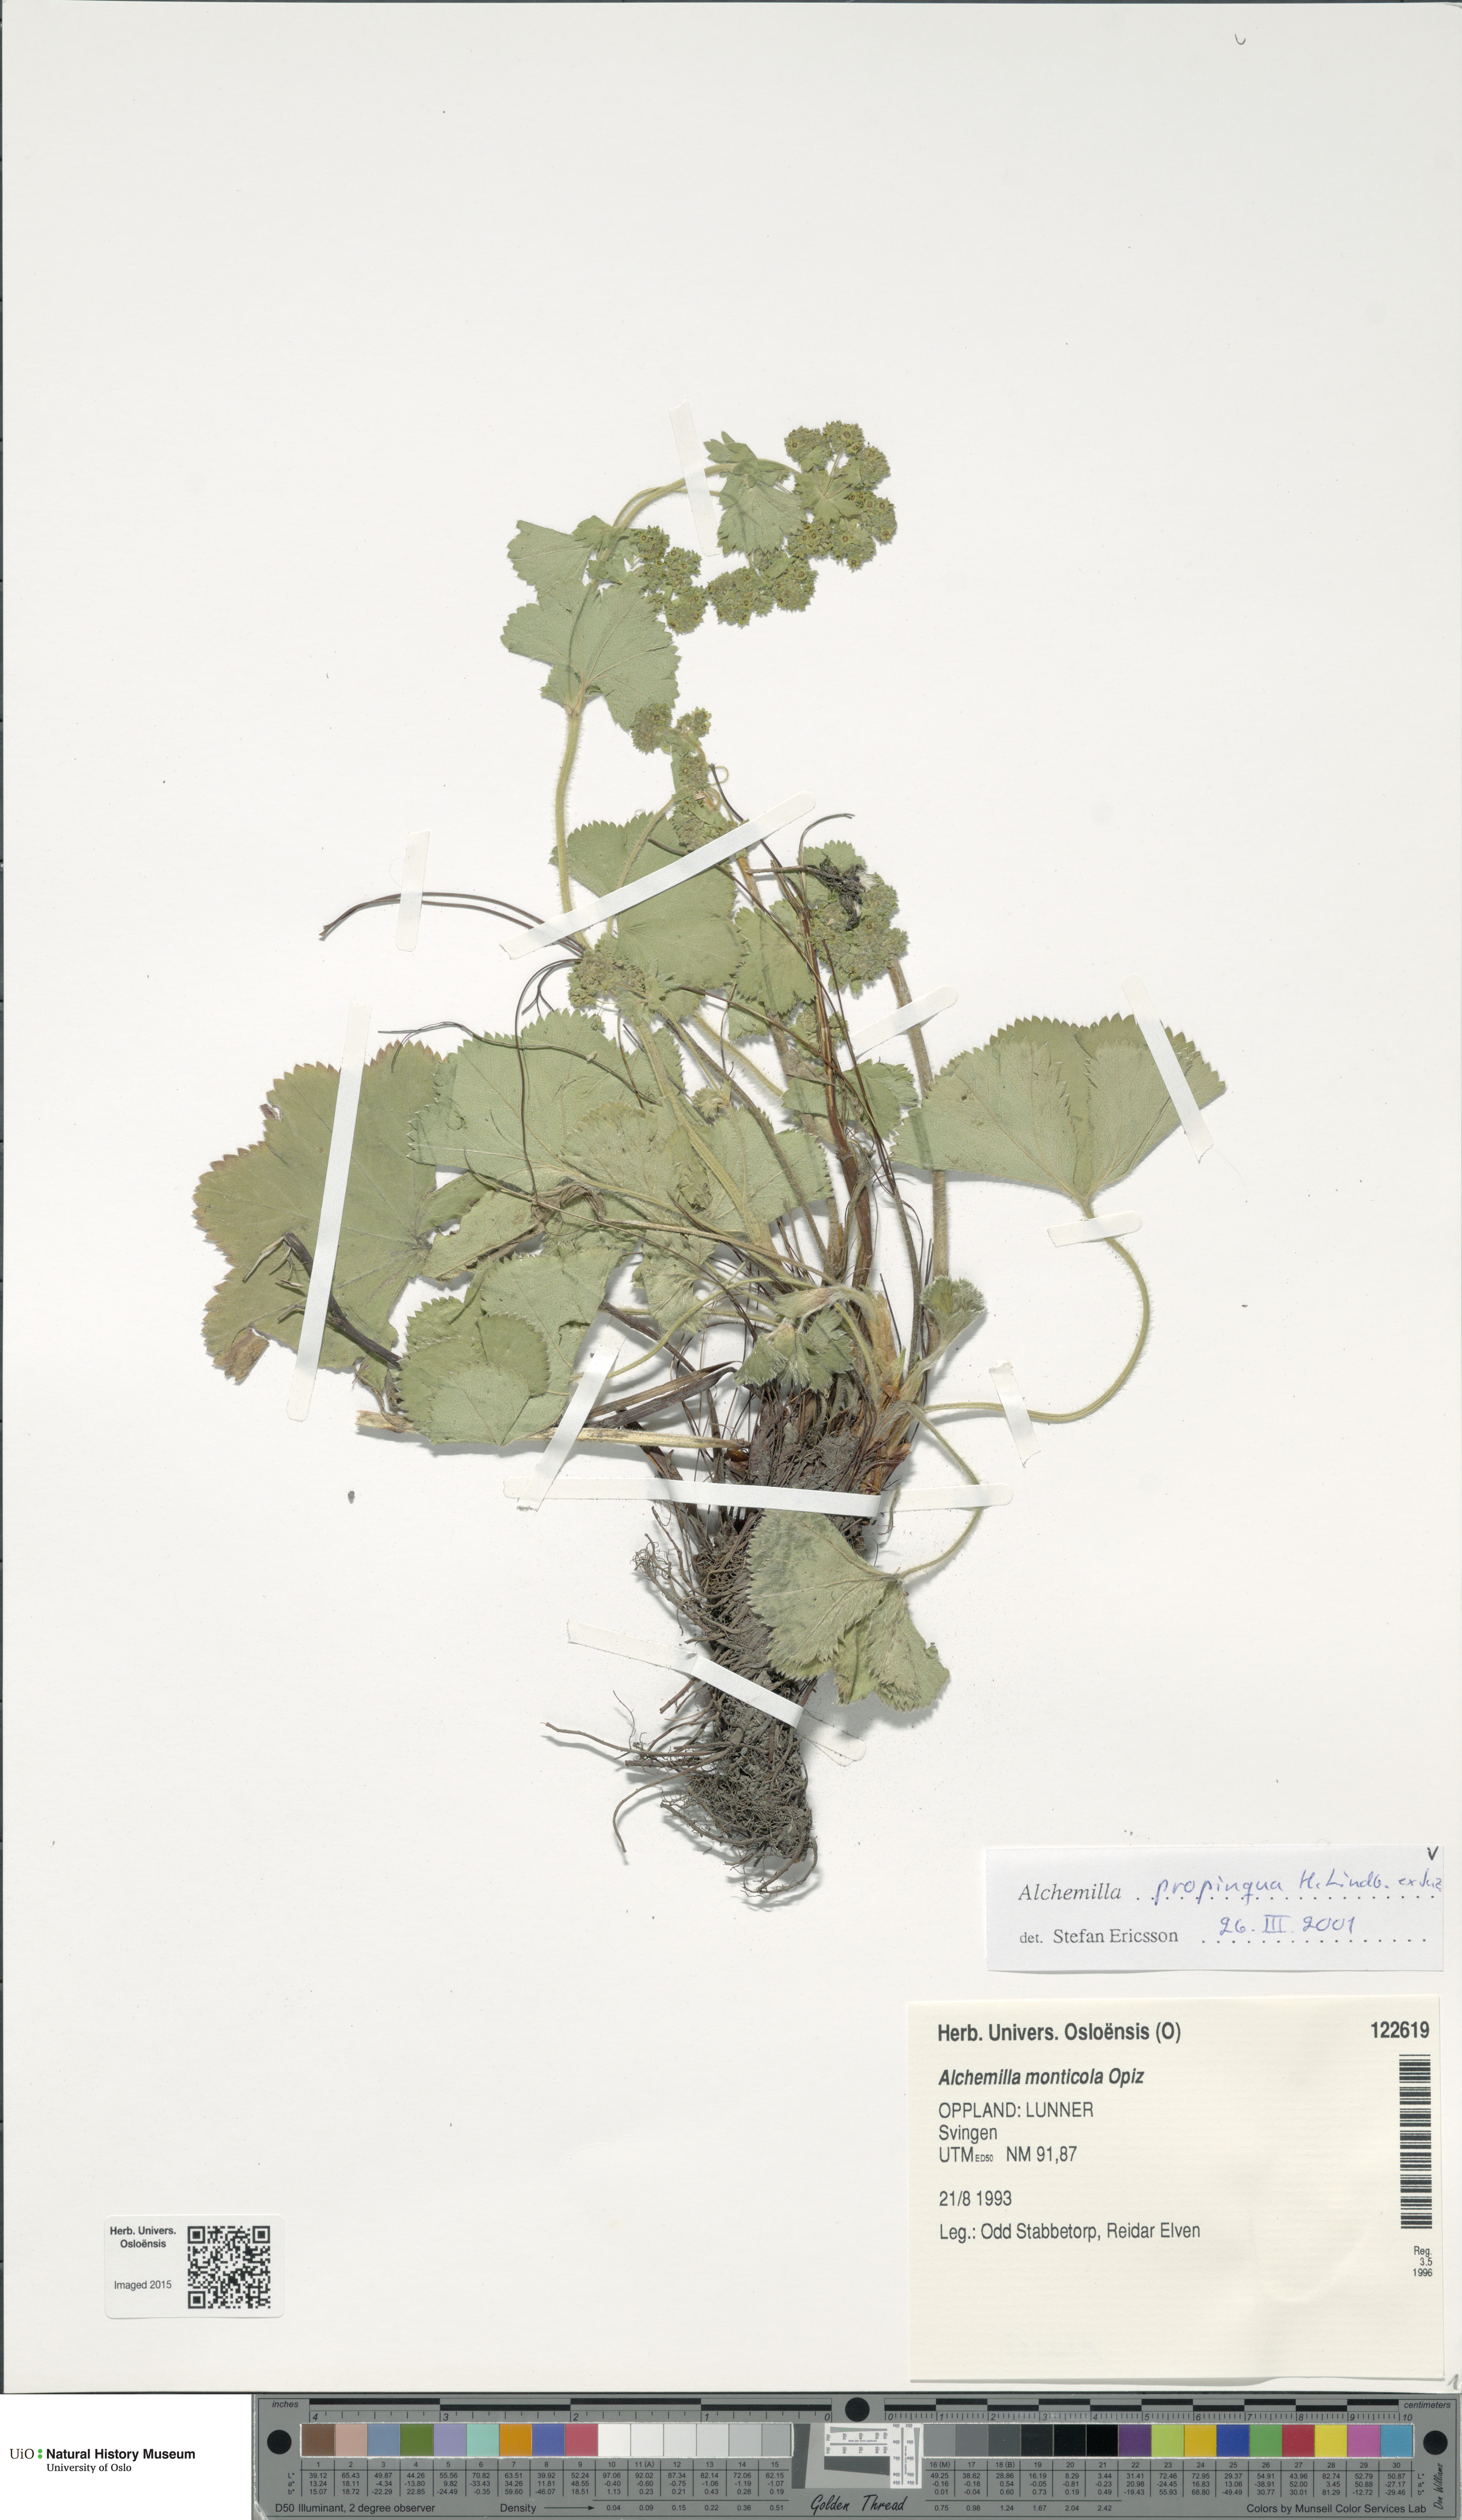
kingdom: Plantae
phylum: Tracheophyta
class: Magnoliopsida
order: Rosales
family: Rosaceae
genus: Alchemilla
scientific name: Alchemilla propinqua
